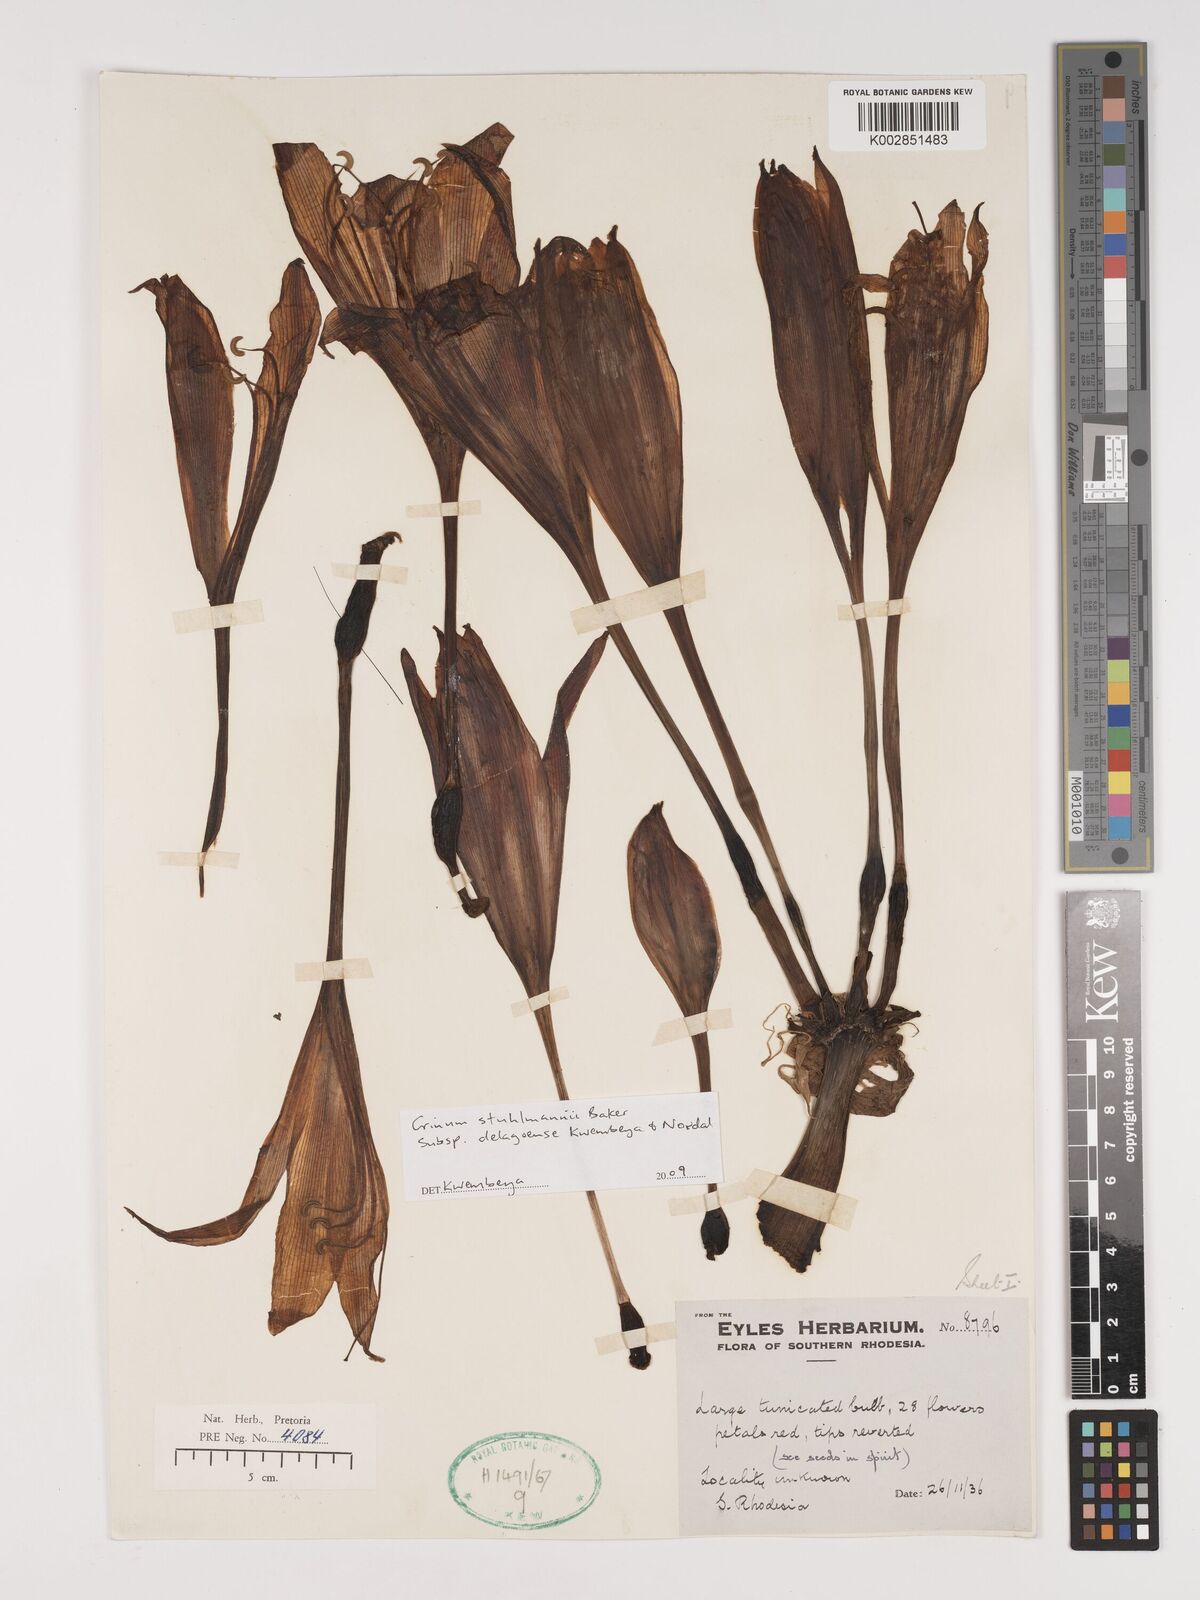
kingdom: Plantae
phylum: Tracheophyta
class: Liliopsida
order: Asparagales
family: Amaryllidaceae
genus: Crinum
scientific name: Crinum stuhlmannii
